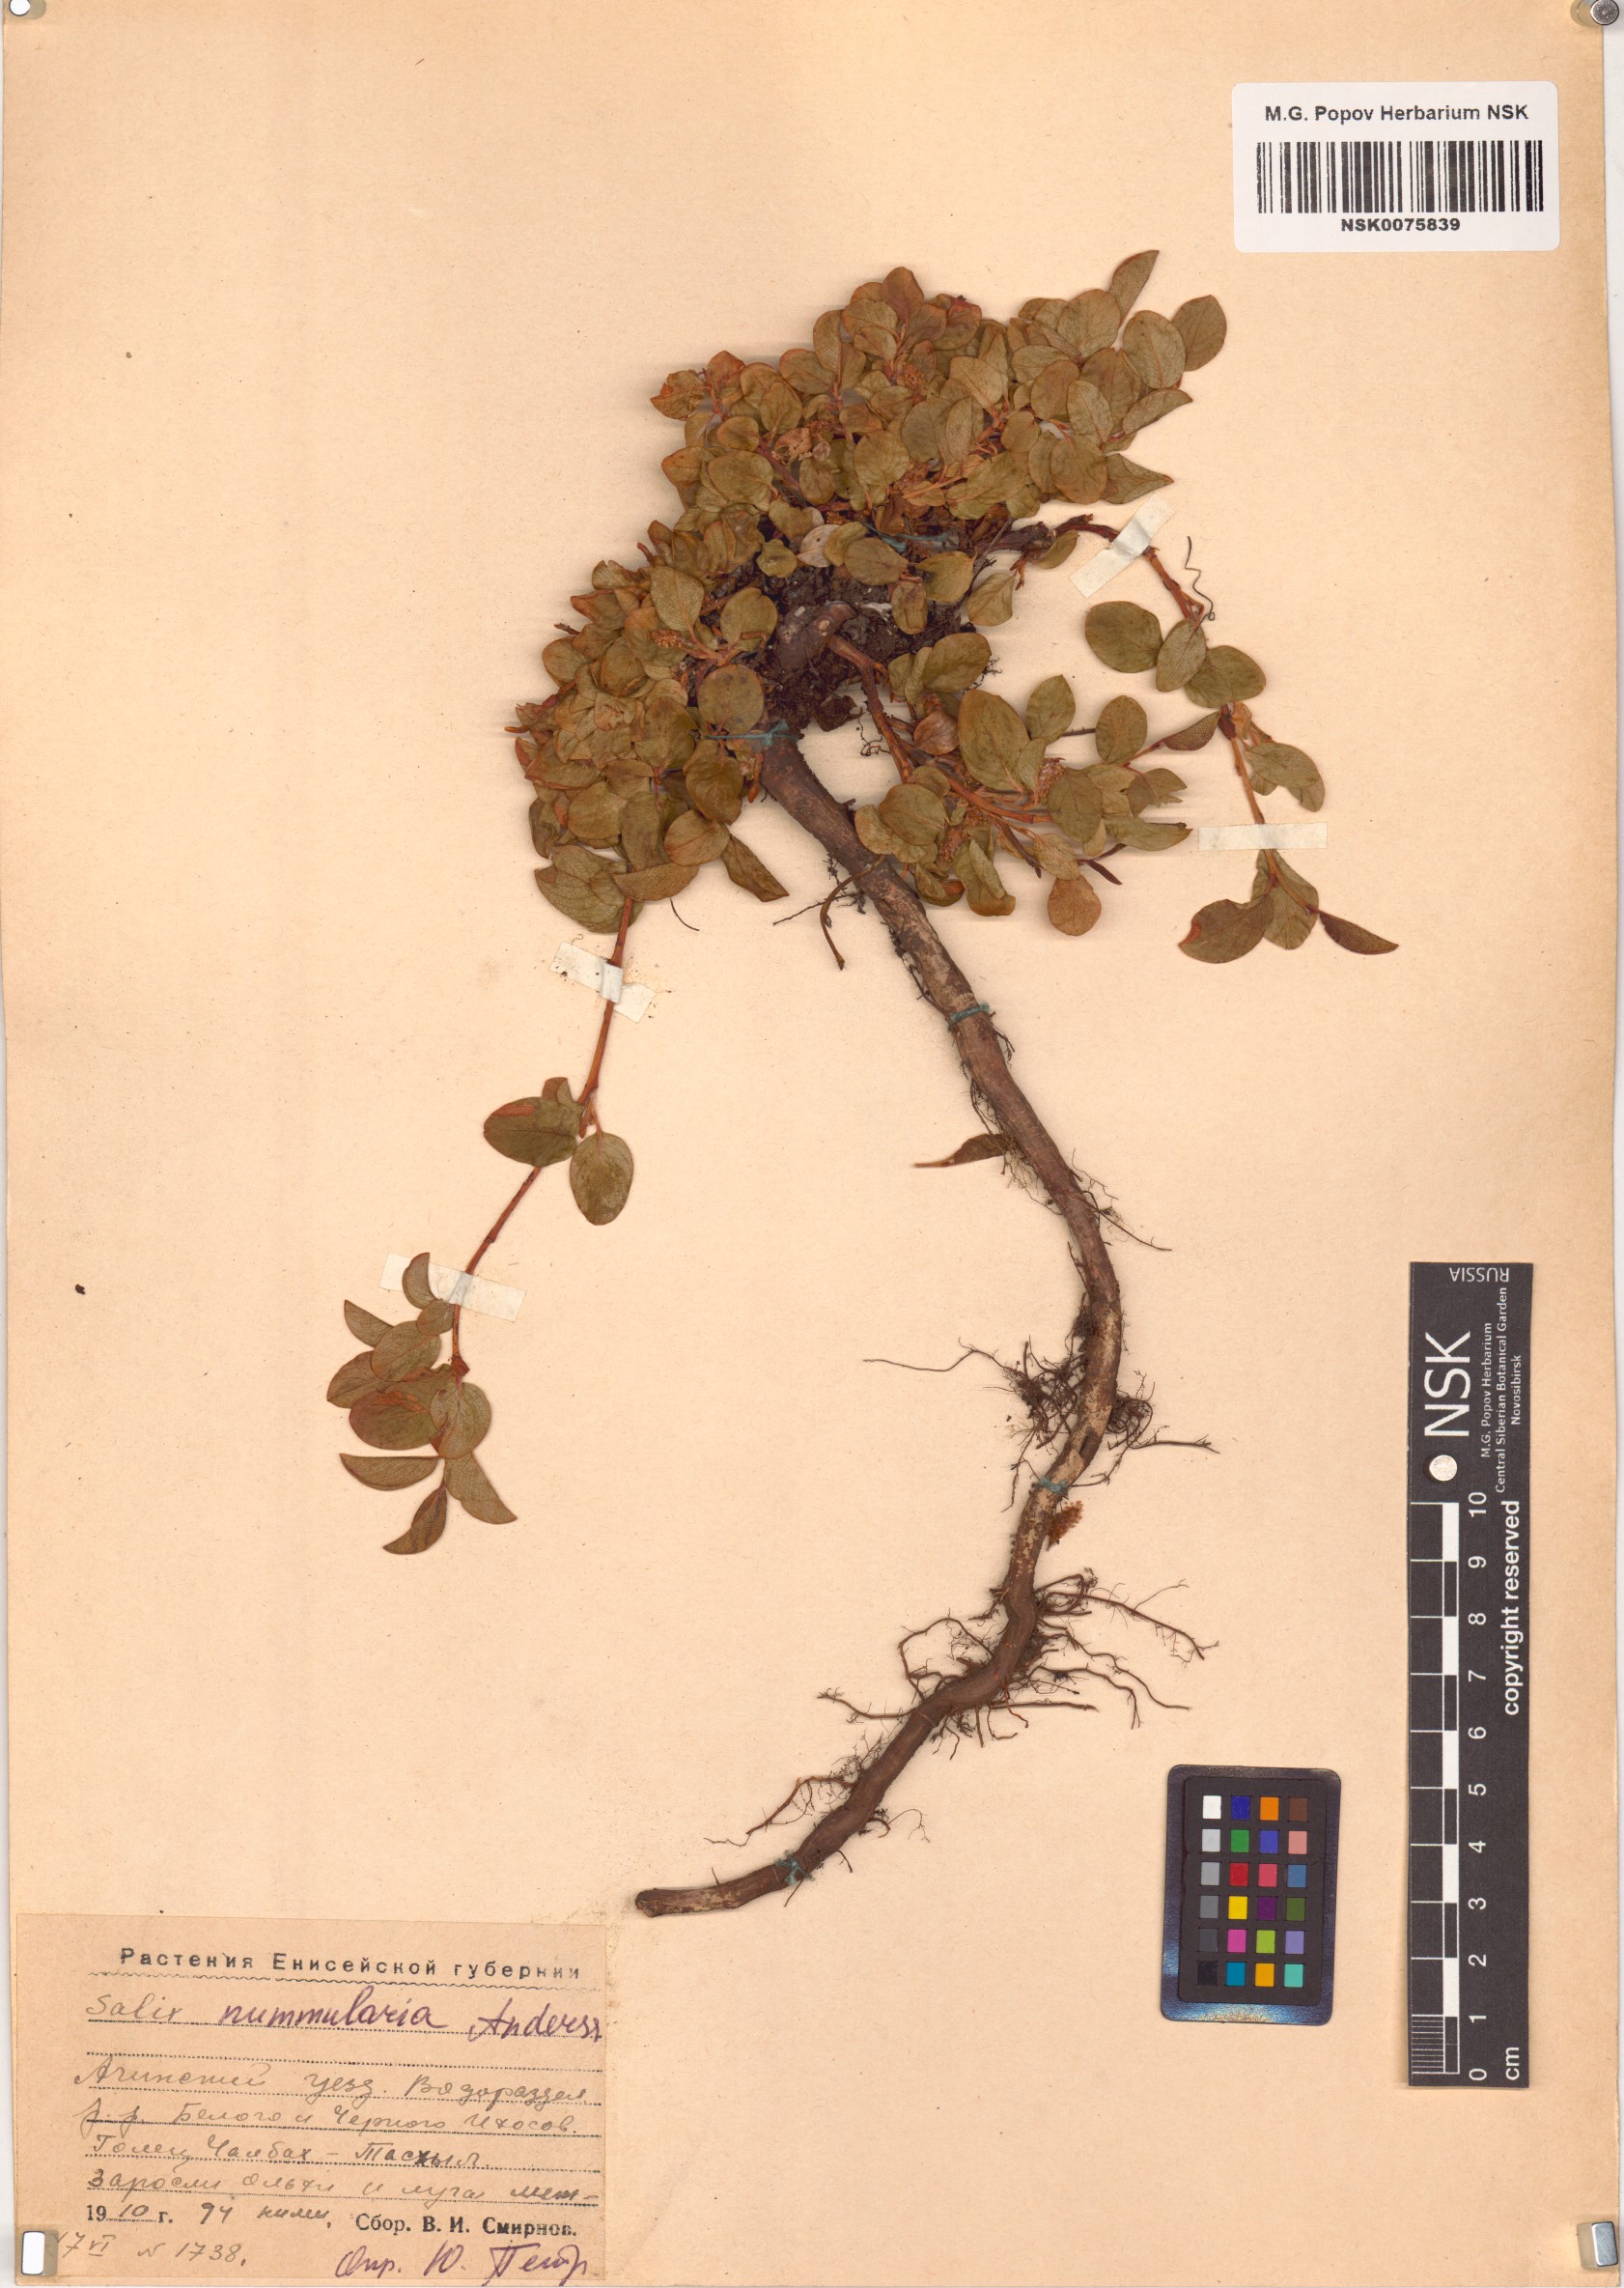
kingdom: Plantae
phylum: Tracheophyta
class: Magnoliopsida
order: Malpighiales
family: Salicaceae
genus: Salix
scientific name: Salix nummularia
